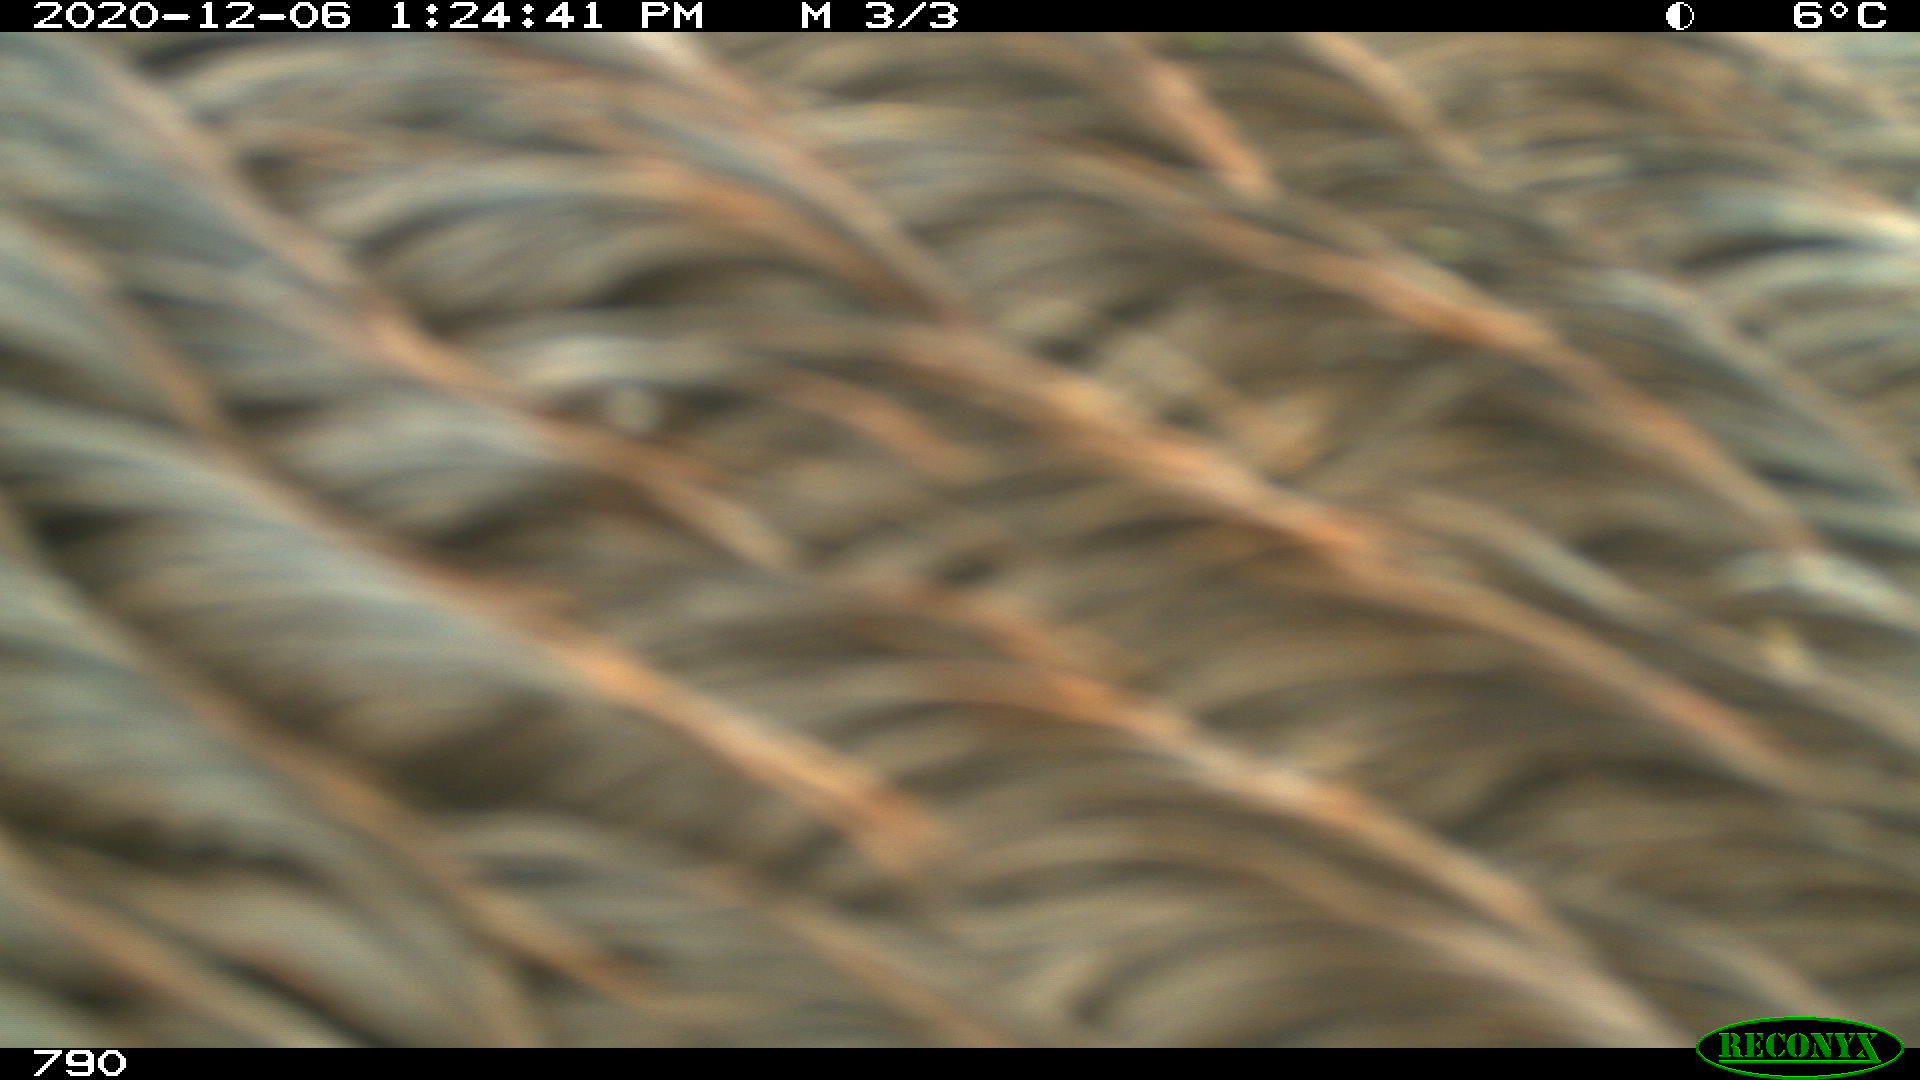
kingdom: Animalia
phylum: Chordata
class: Mammalia
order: Perissodactyla
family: Equidae
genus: Equus
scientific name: Equus caballus
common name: Horse
